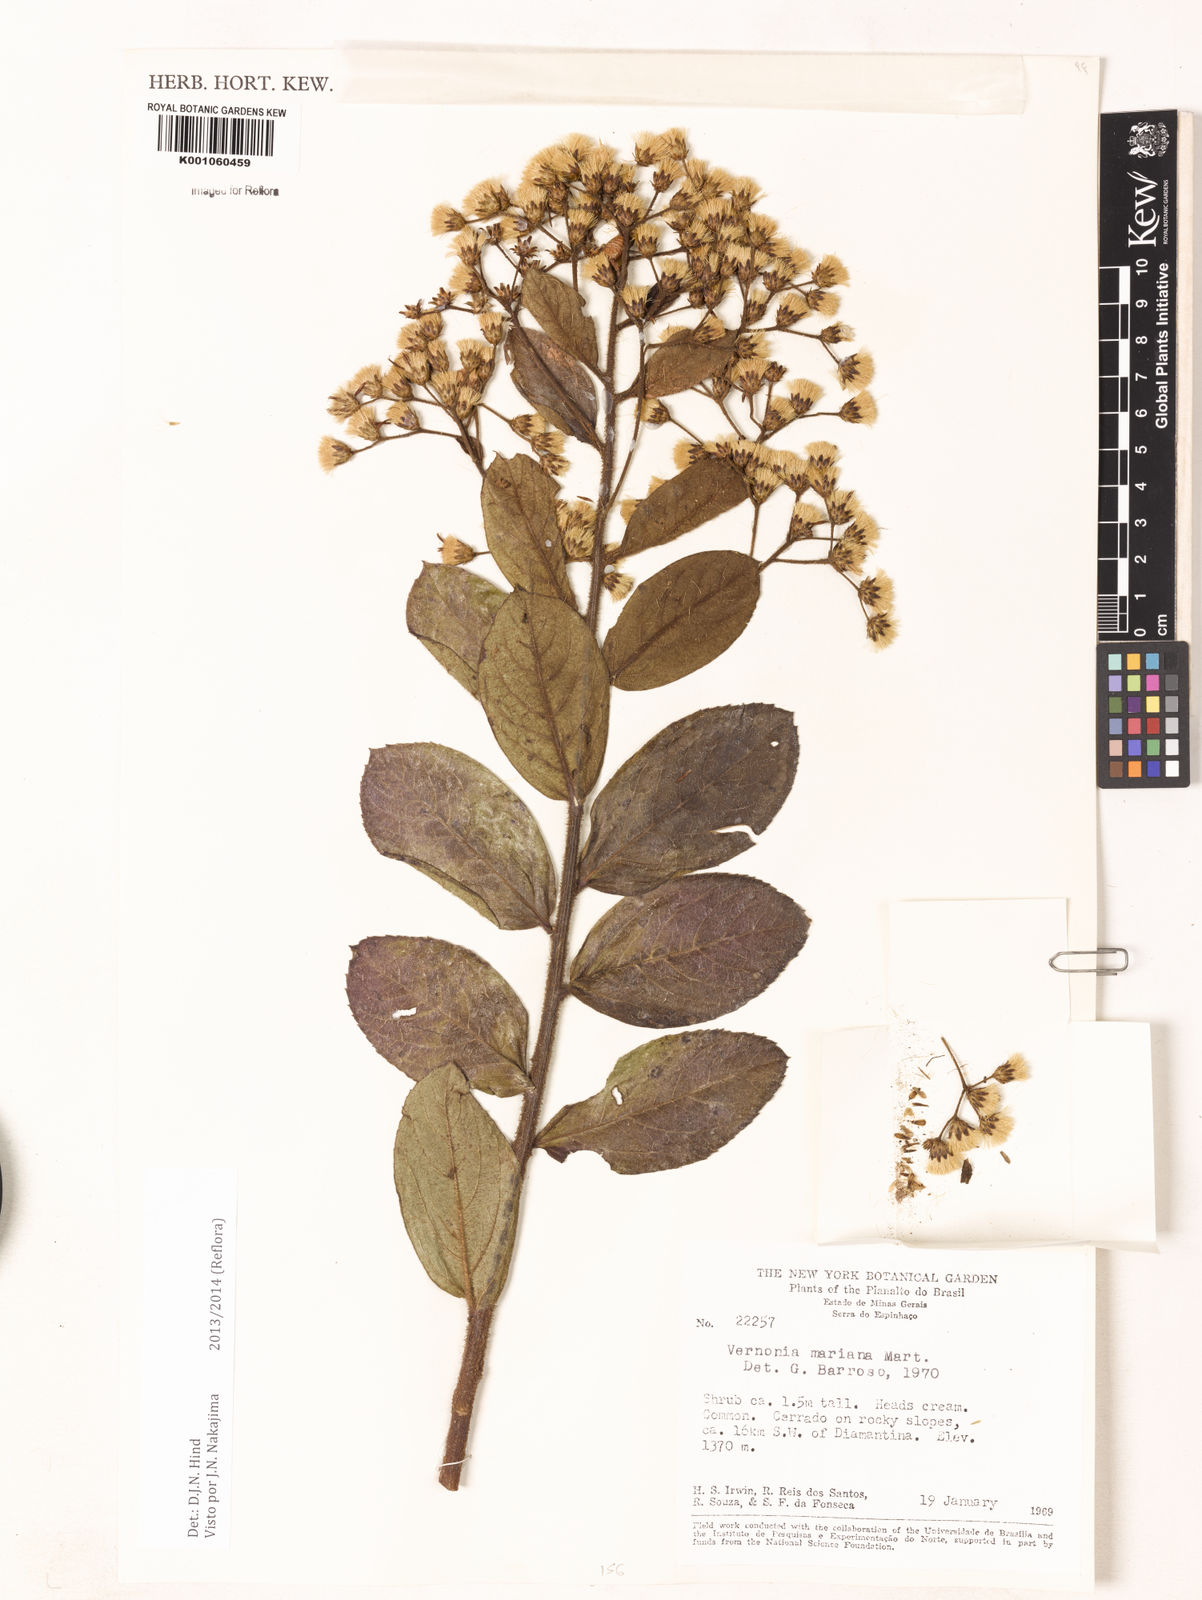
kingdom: Plantae
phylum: Tracheophyta
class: Magnoliopsida
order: Asterales
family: Asteraceae
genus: Vernonanthura
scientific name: Vernonanthura cymosa
